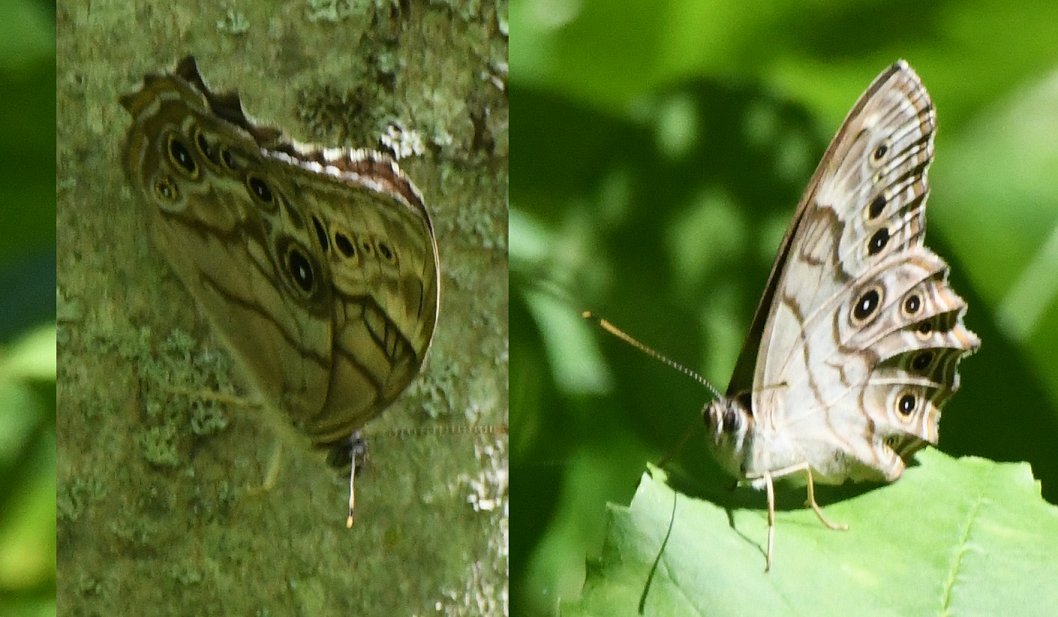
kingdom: Animalia
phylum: Arthropoda
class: Insecta
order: Lepidoptera
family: Nymphalidae
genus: Lethe
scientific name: Lethe anthedon
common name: Northern Pearly-Eye
